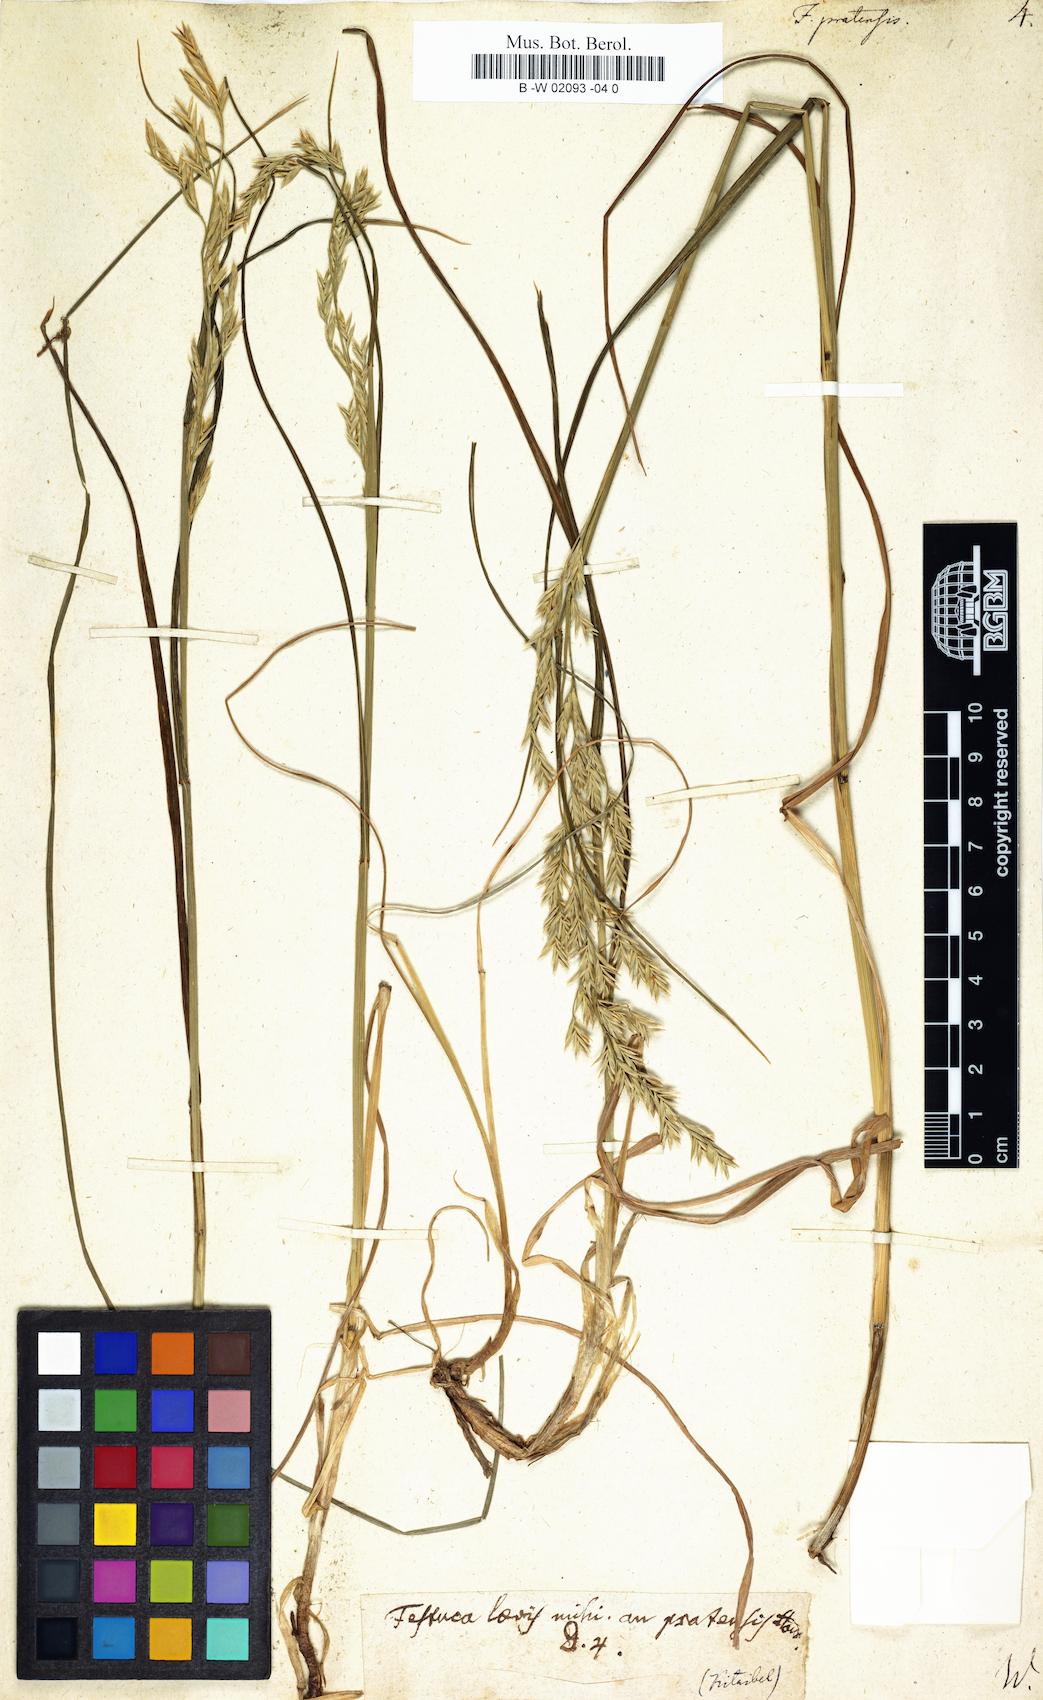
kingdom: Plantae
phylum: Tracheophyta
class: Liliopsida
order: Poales
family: Poaceae
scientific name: Poaceae
